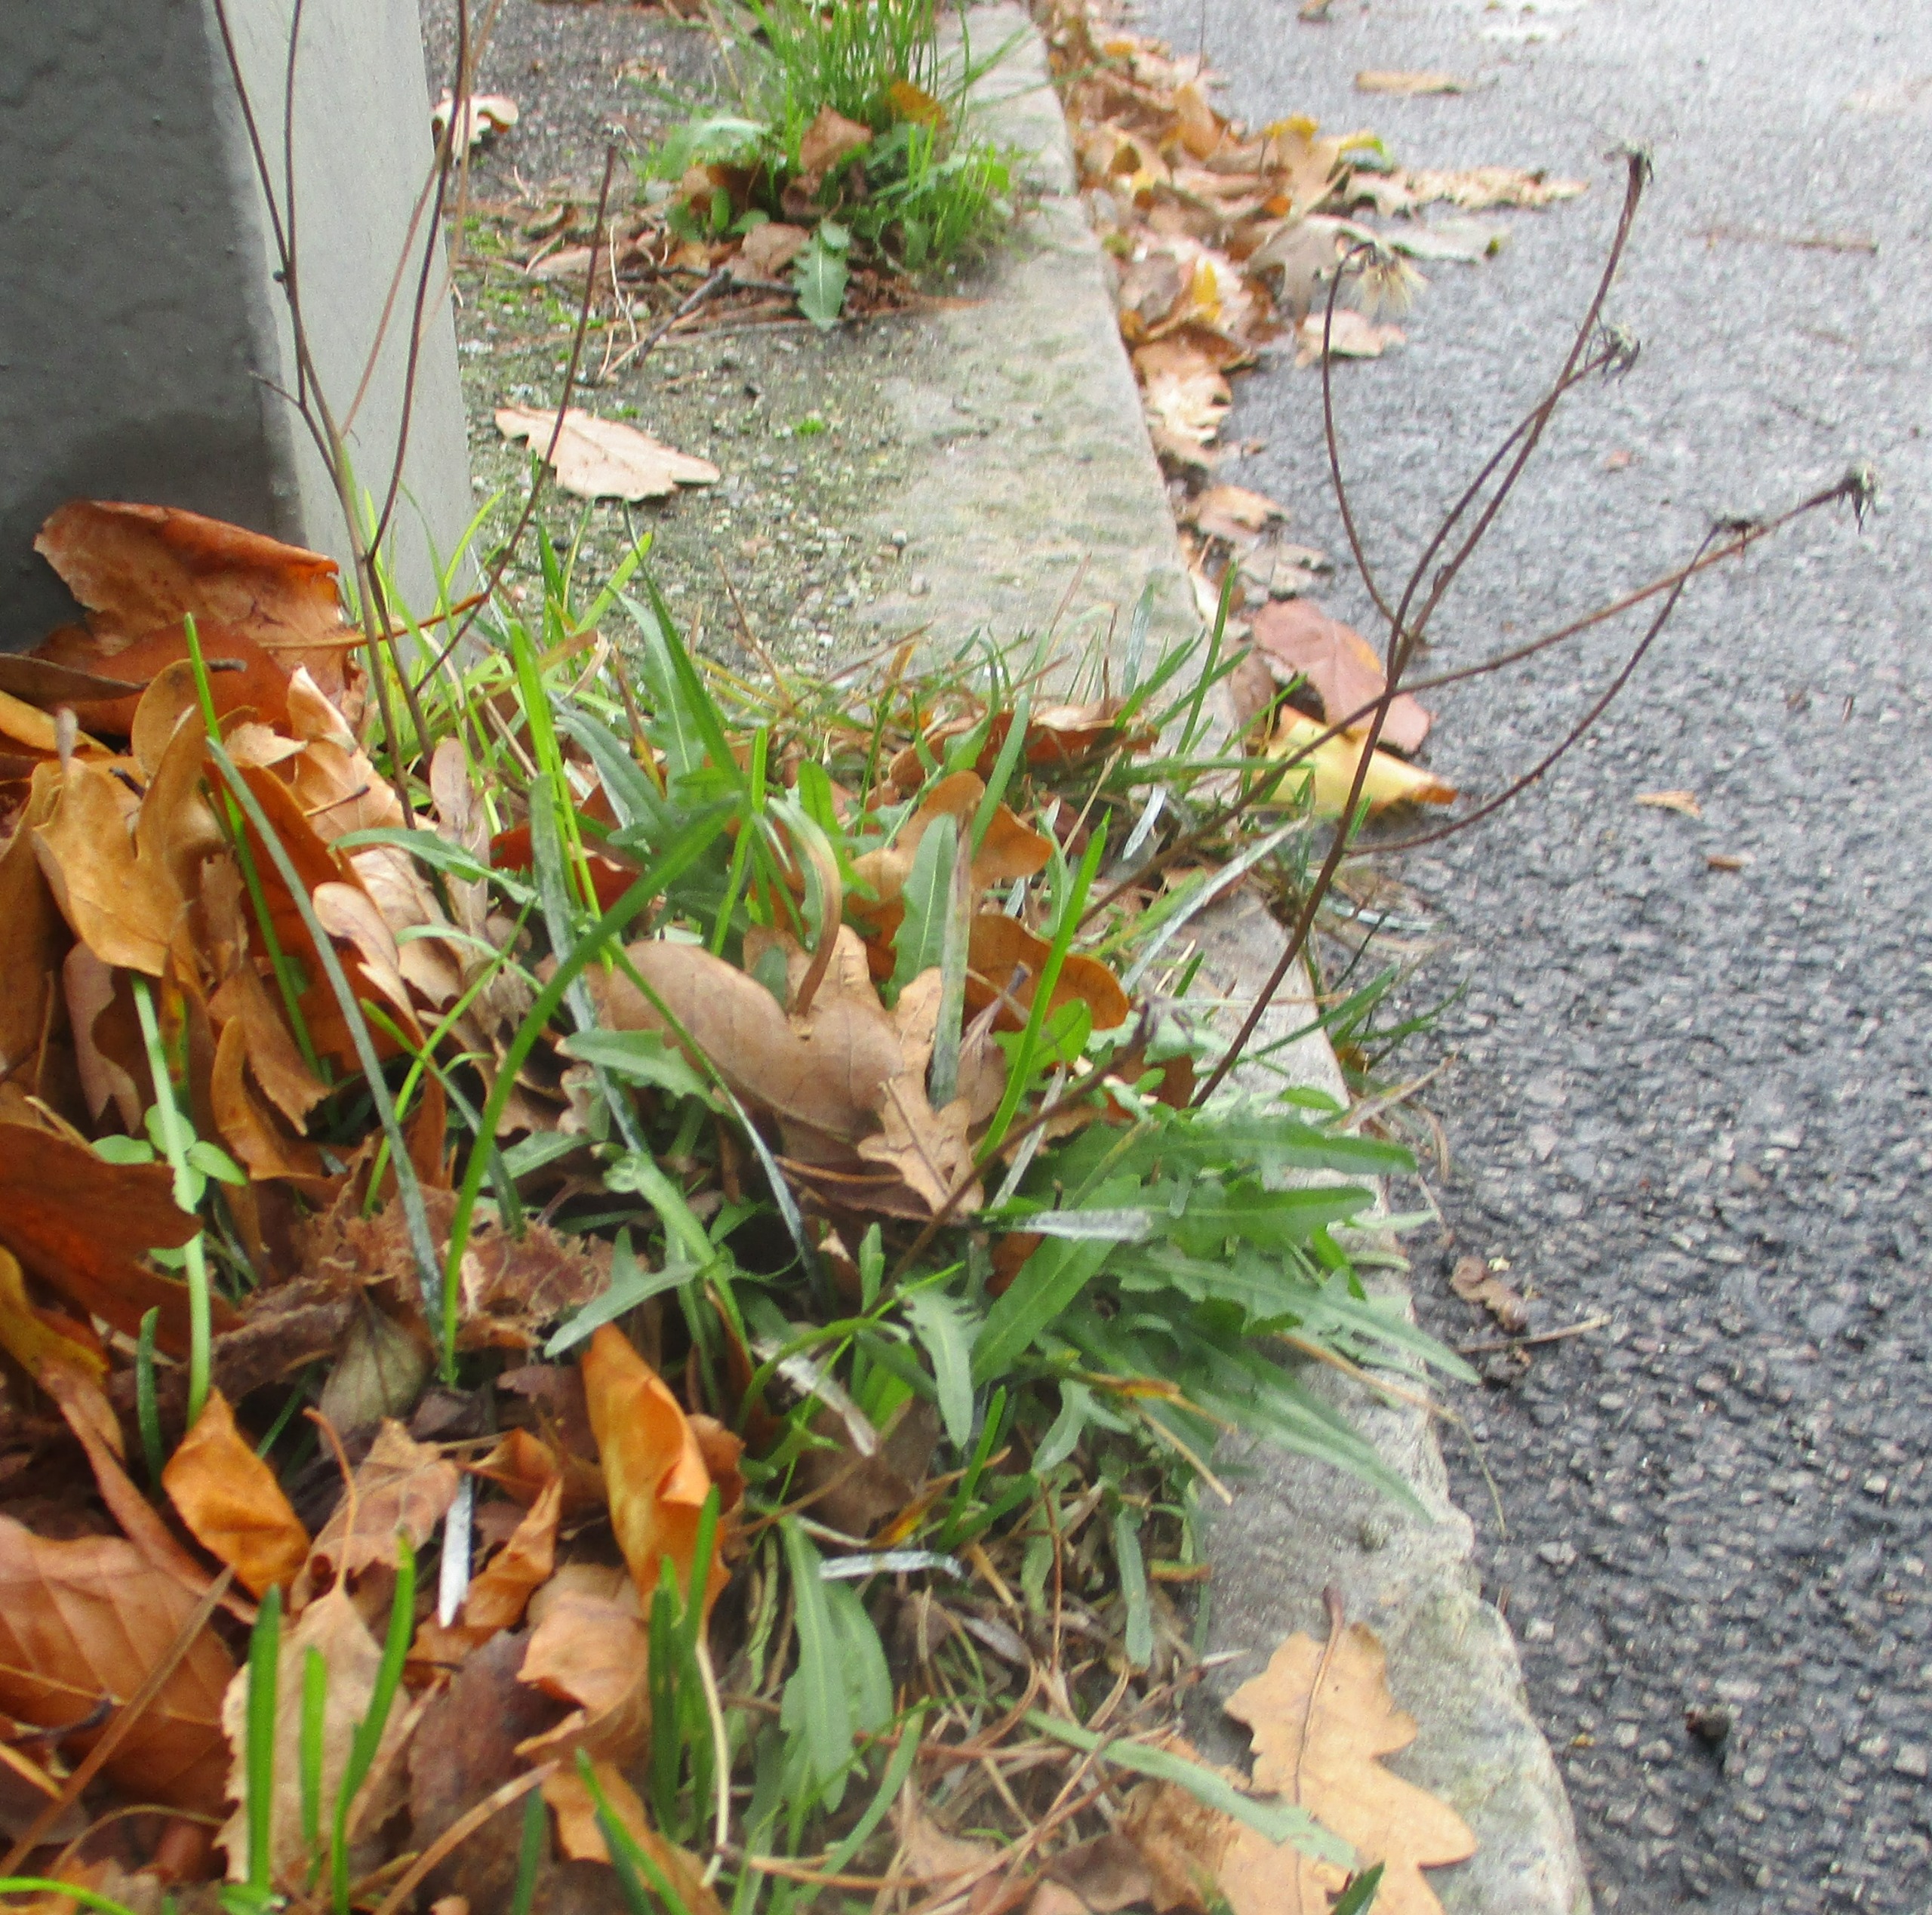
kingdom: Plantae
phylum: Tracheophyta
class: Magnoliopsida
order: Asterales
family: Asteraceae
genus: Scorzoneroides
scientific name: Scorzoneroides autumnalis
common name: Høst-borst
